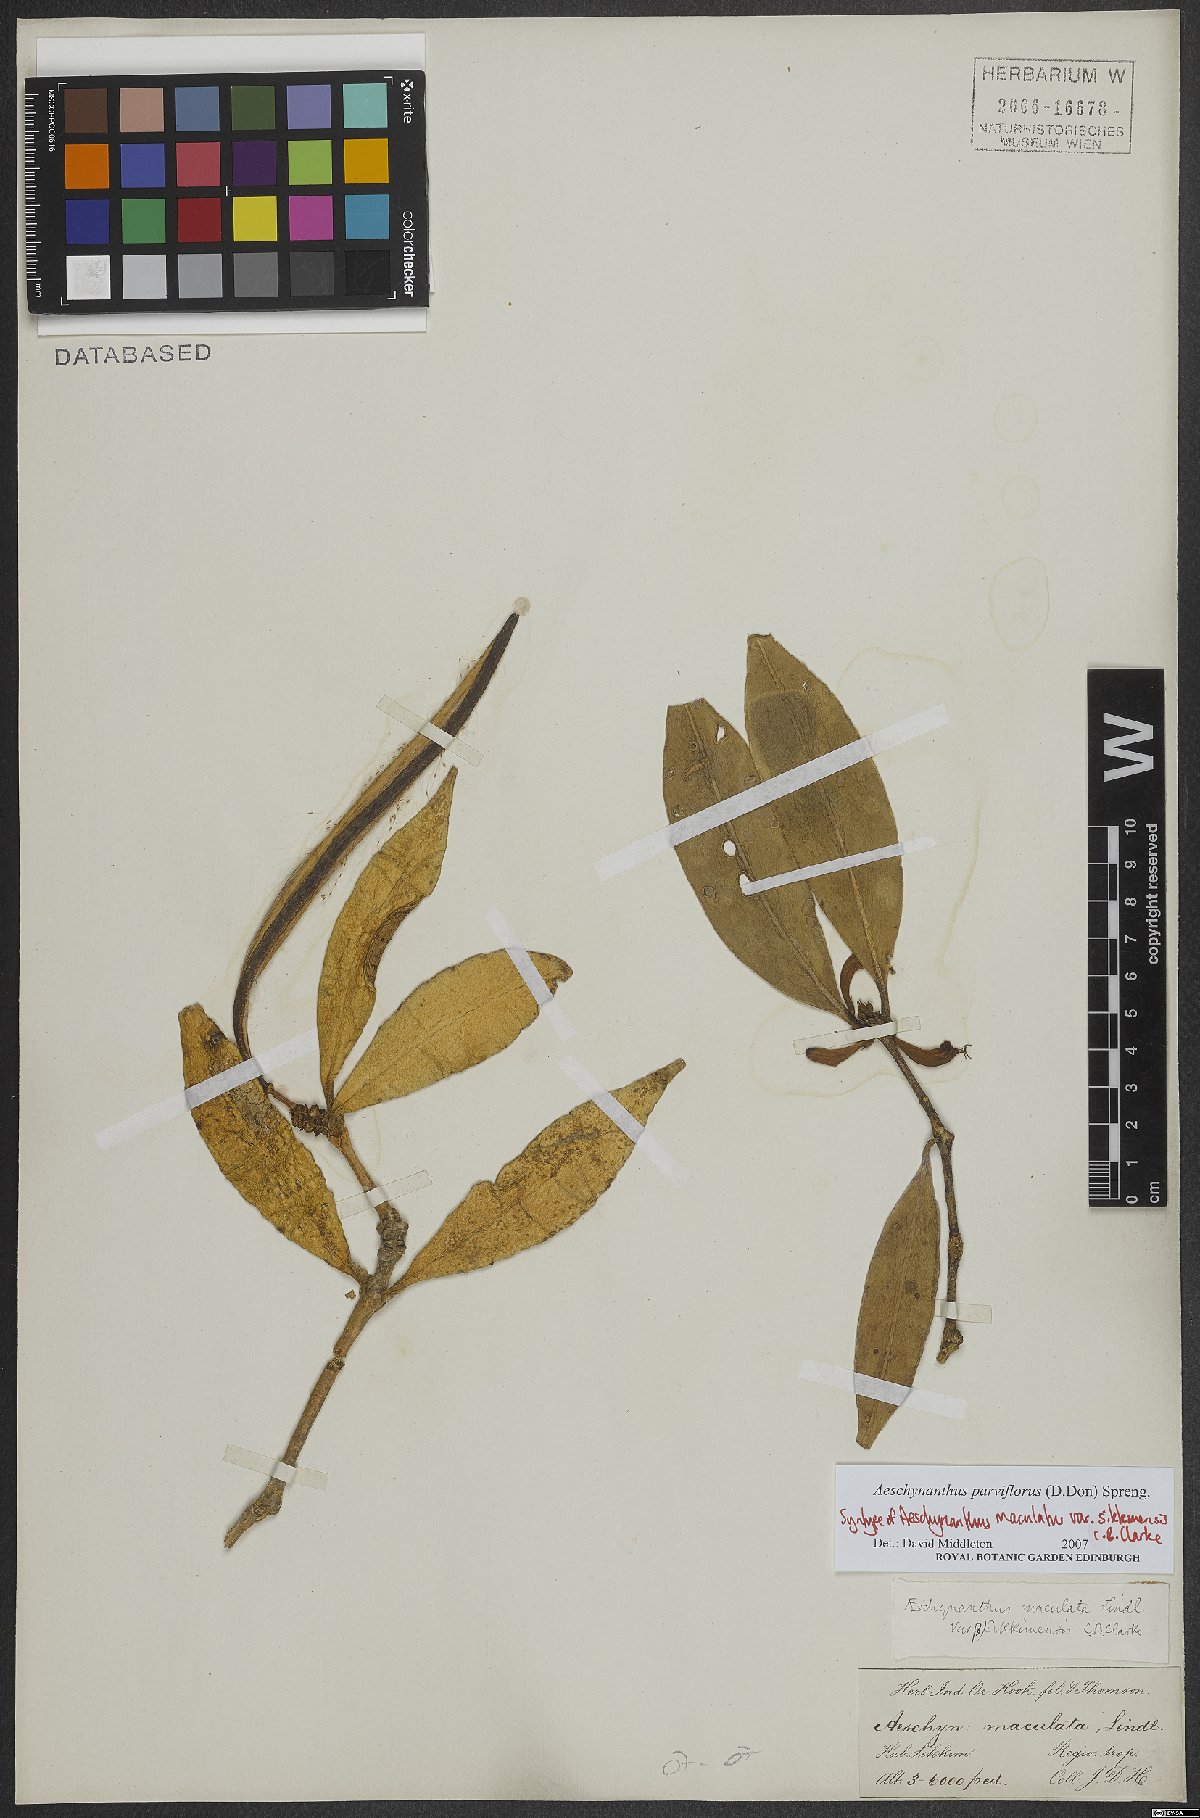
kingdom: Plantae
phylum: Tracheophyta
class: Magnoliopsida
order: Lamiales
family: Gesneriaceae
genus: Aeschynanthus
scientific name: Aeschynanthus parviflorus
